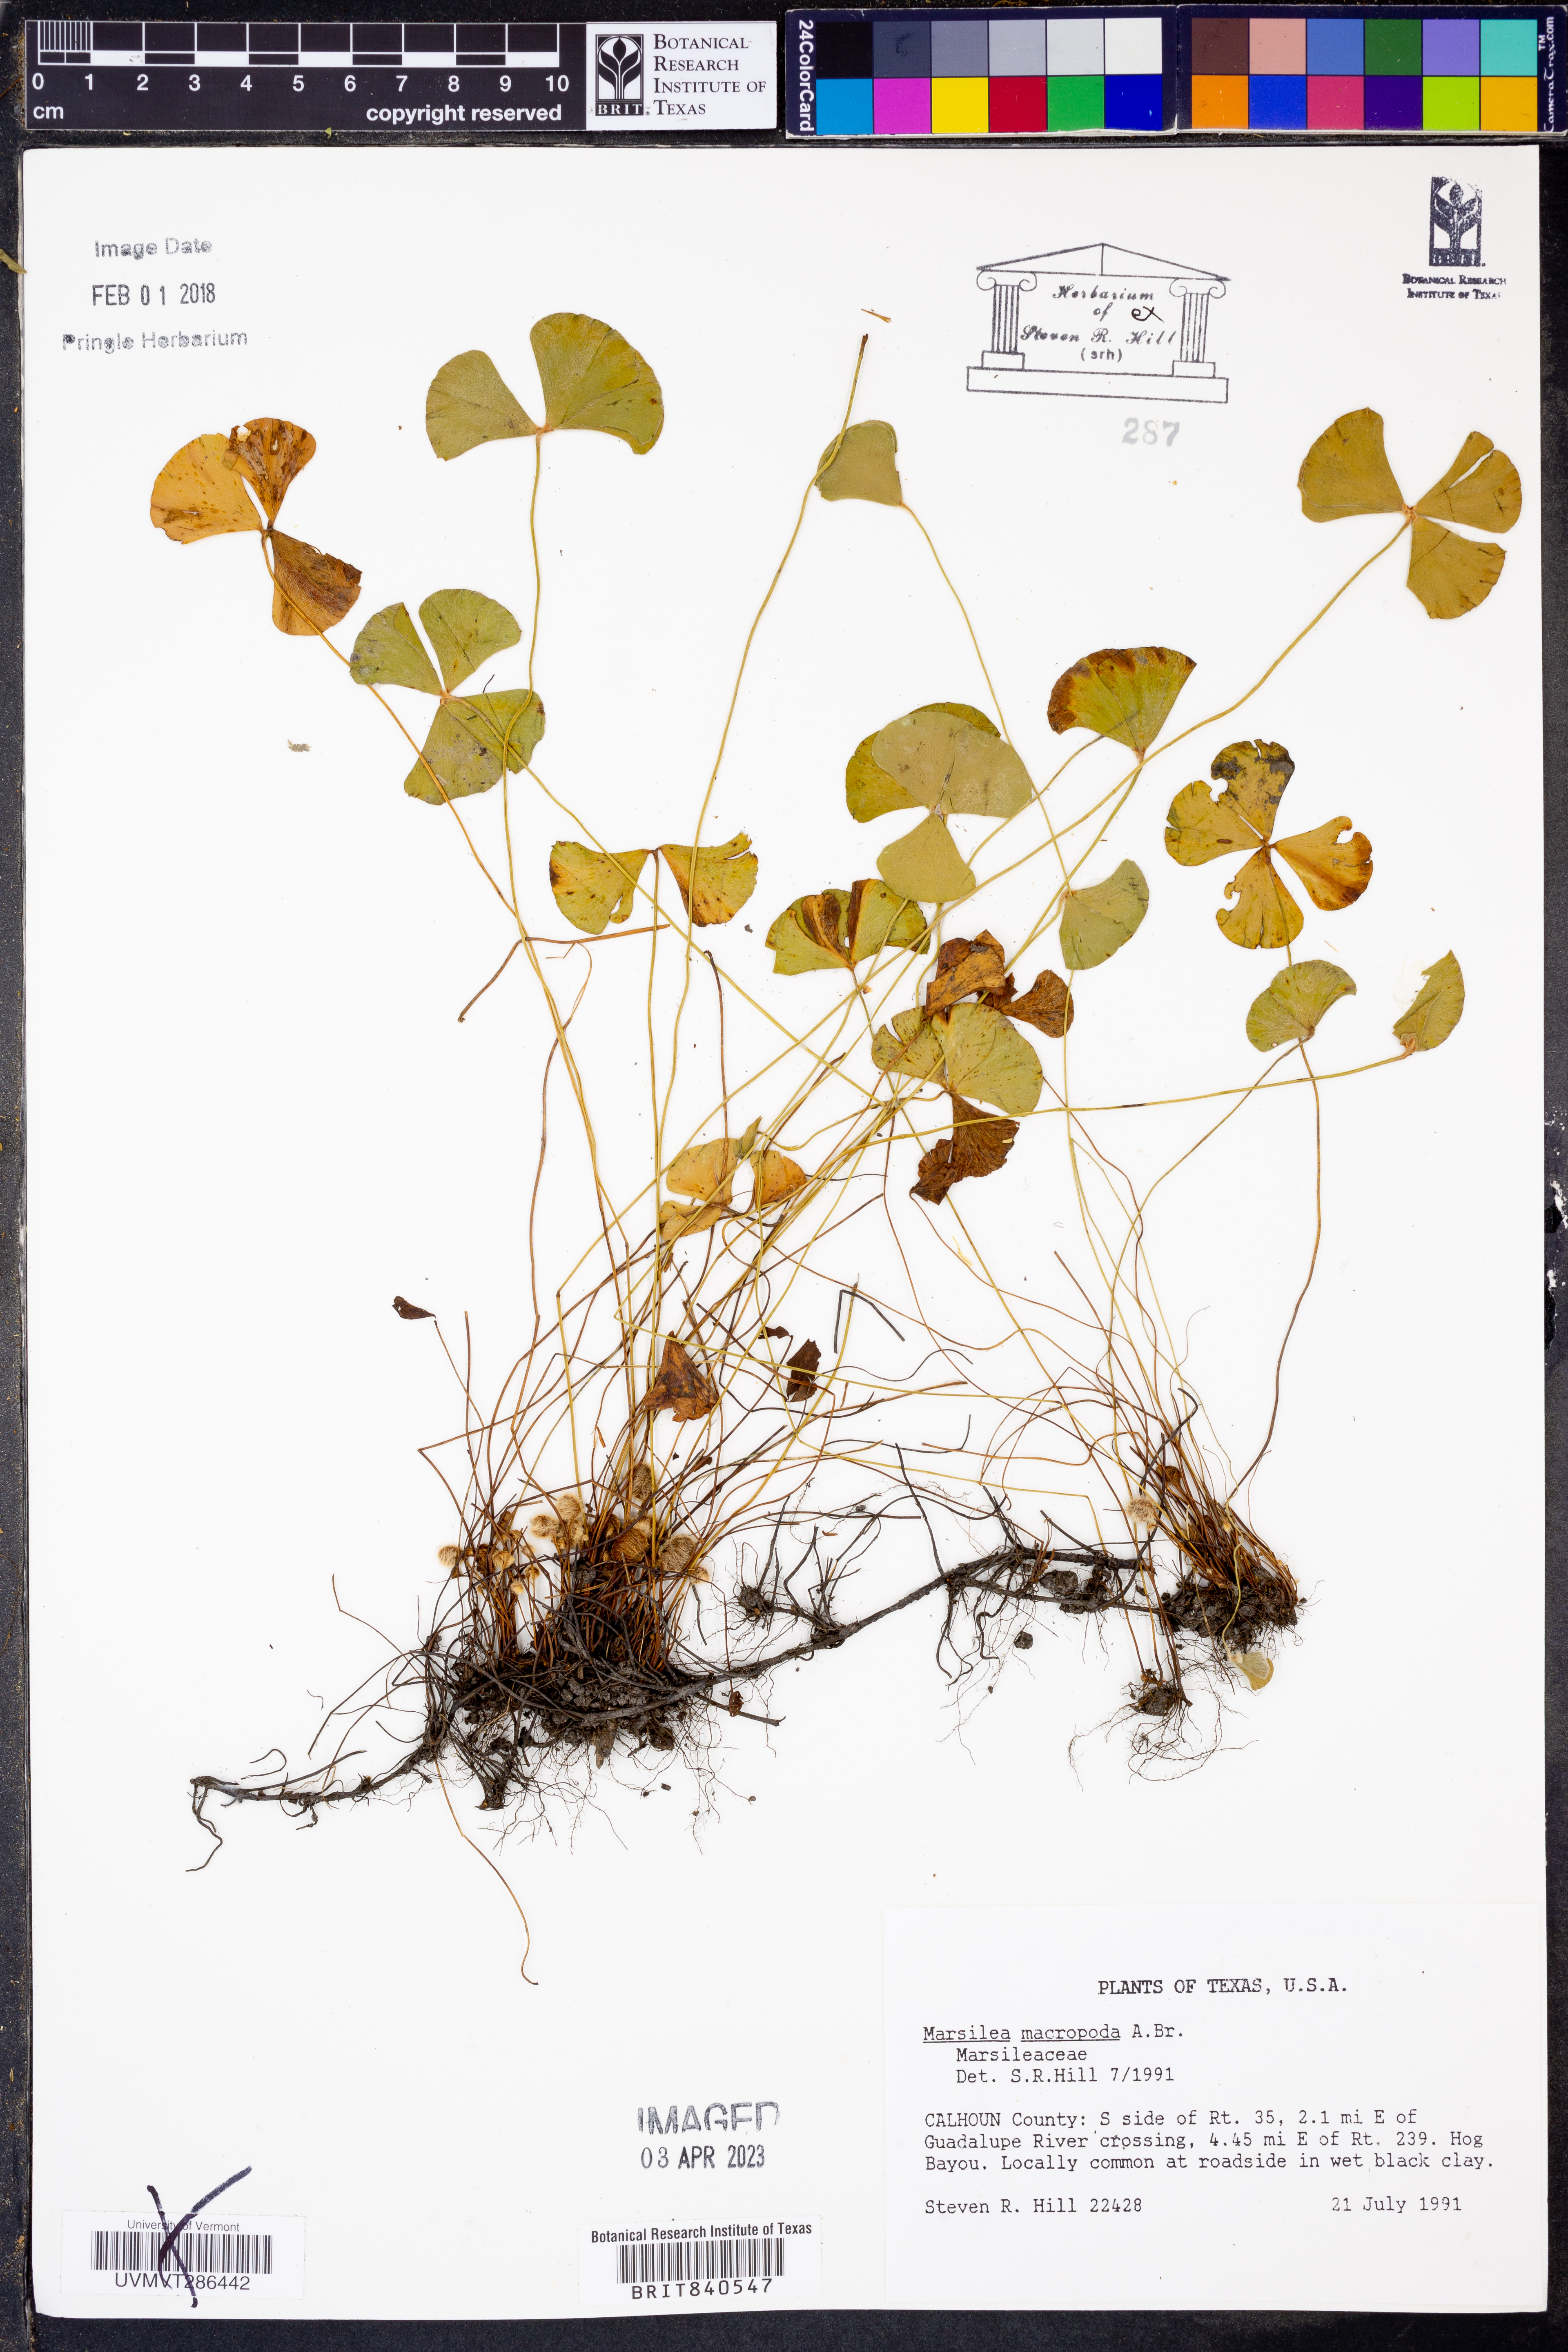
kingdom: Plantae
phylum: Tracheophyta
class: Polypodiopsida
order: Salviniales
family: Marsileaceae
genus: Marsilea
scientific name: Marsilea macropoda
